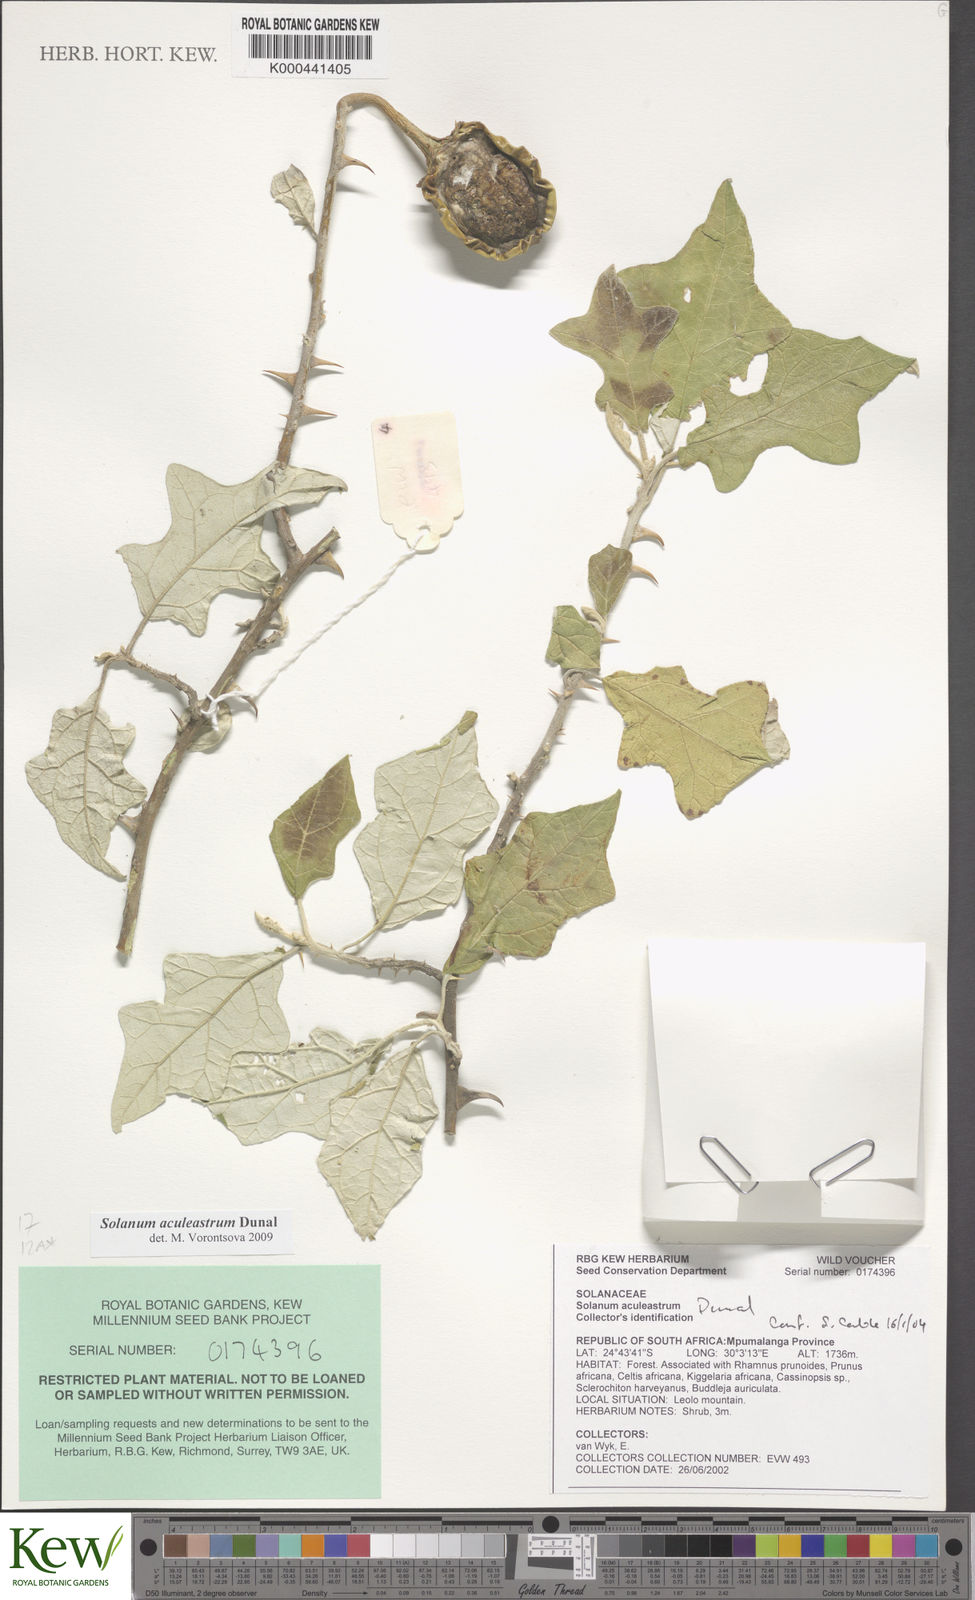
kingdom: Plantae
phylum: Tracheophyta
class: Magnoliopsida
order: Solanales
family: Solanaceae
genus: Solanum
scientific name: Solanum aculeastrum
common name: Goat bitter-apple
